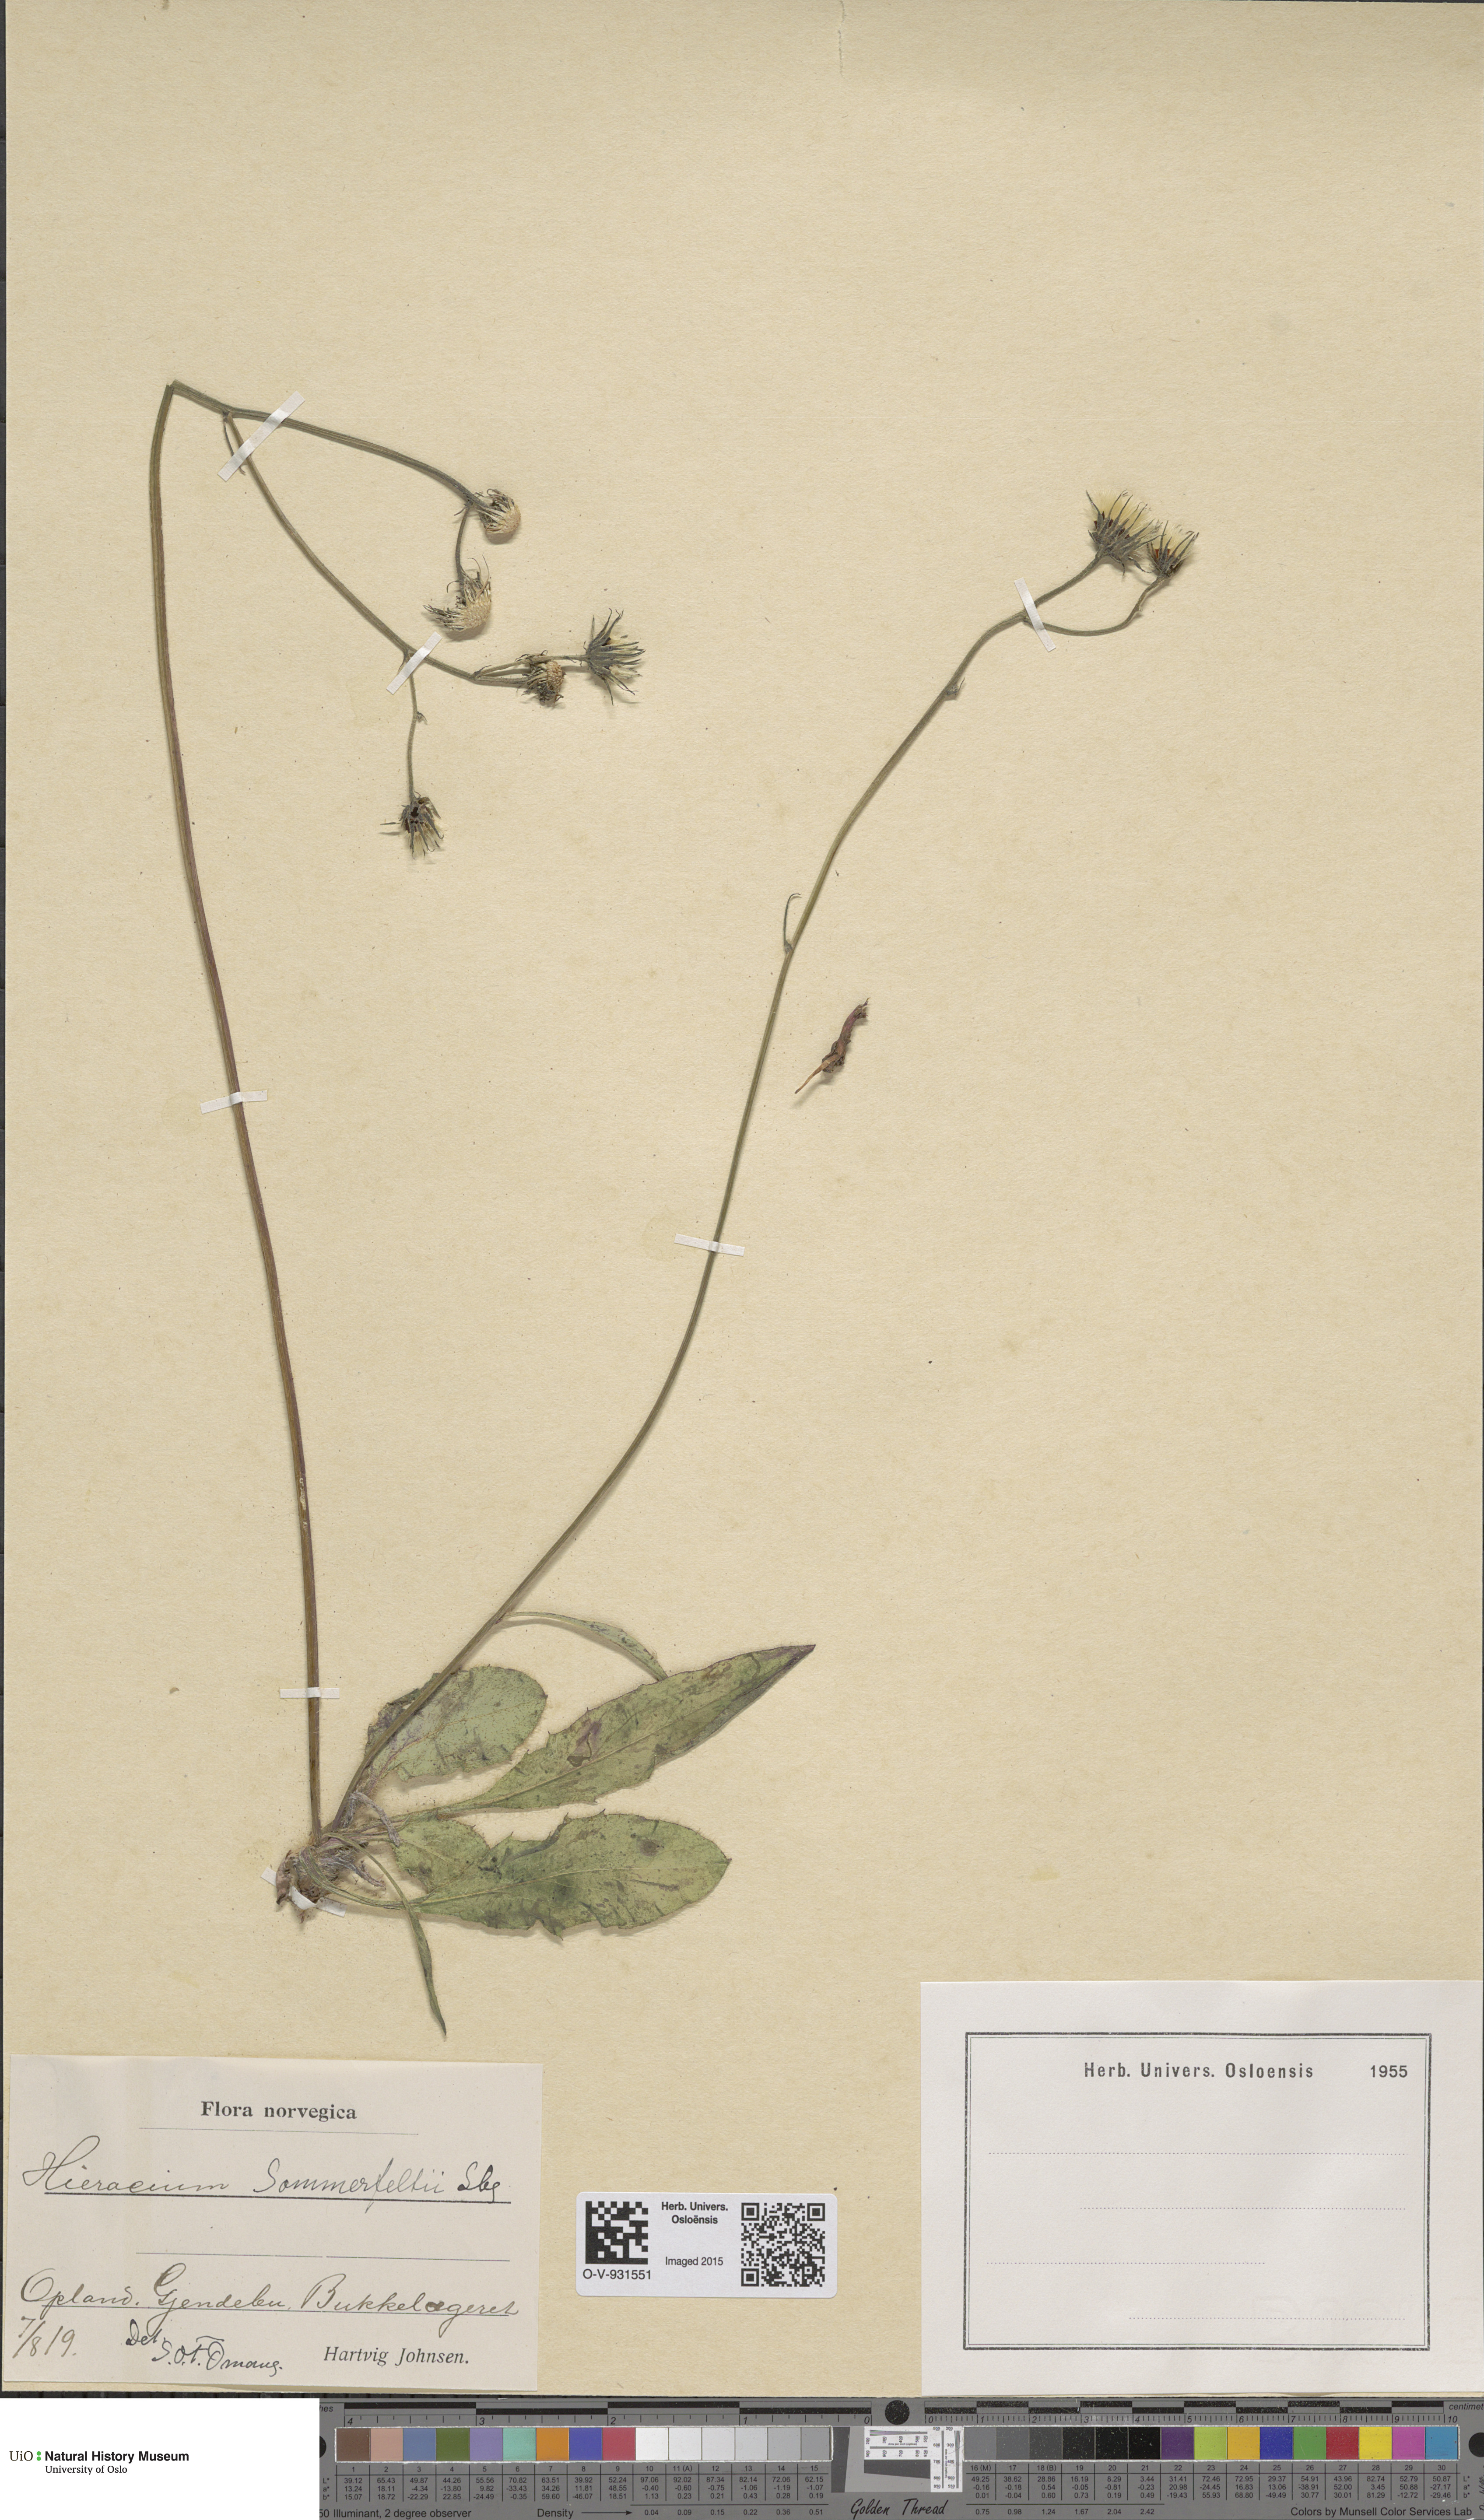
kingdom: Plantae
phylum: Tracheophyta
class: Magnoliopsida
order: Asterales
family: Asteraceae
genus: Hieracium
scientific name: Hieracium sommerfeltii
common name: Sommerfelt's hawkweed
